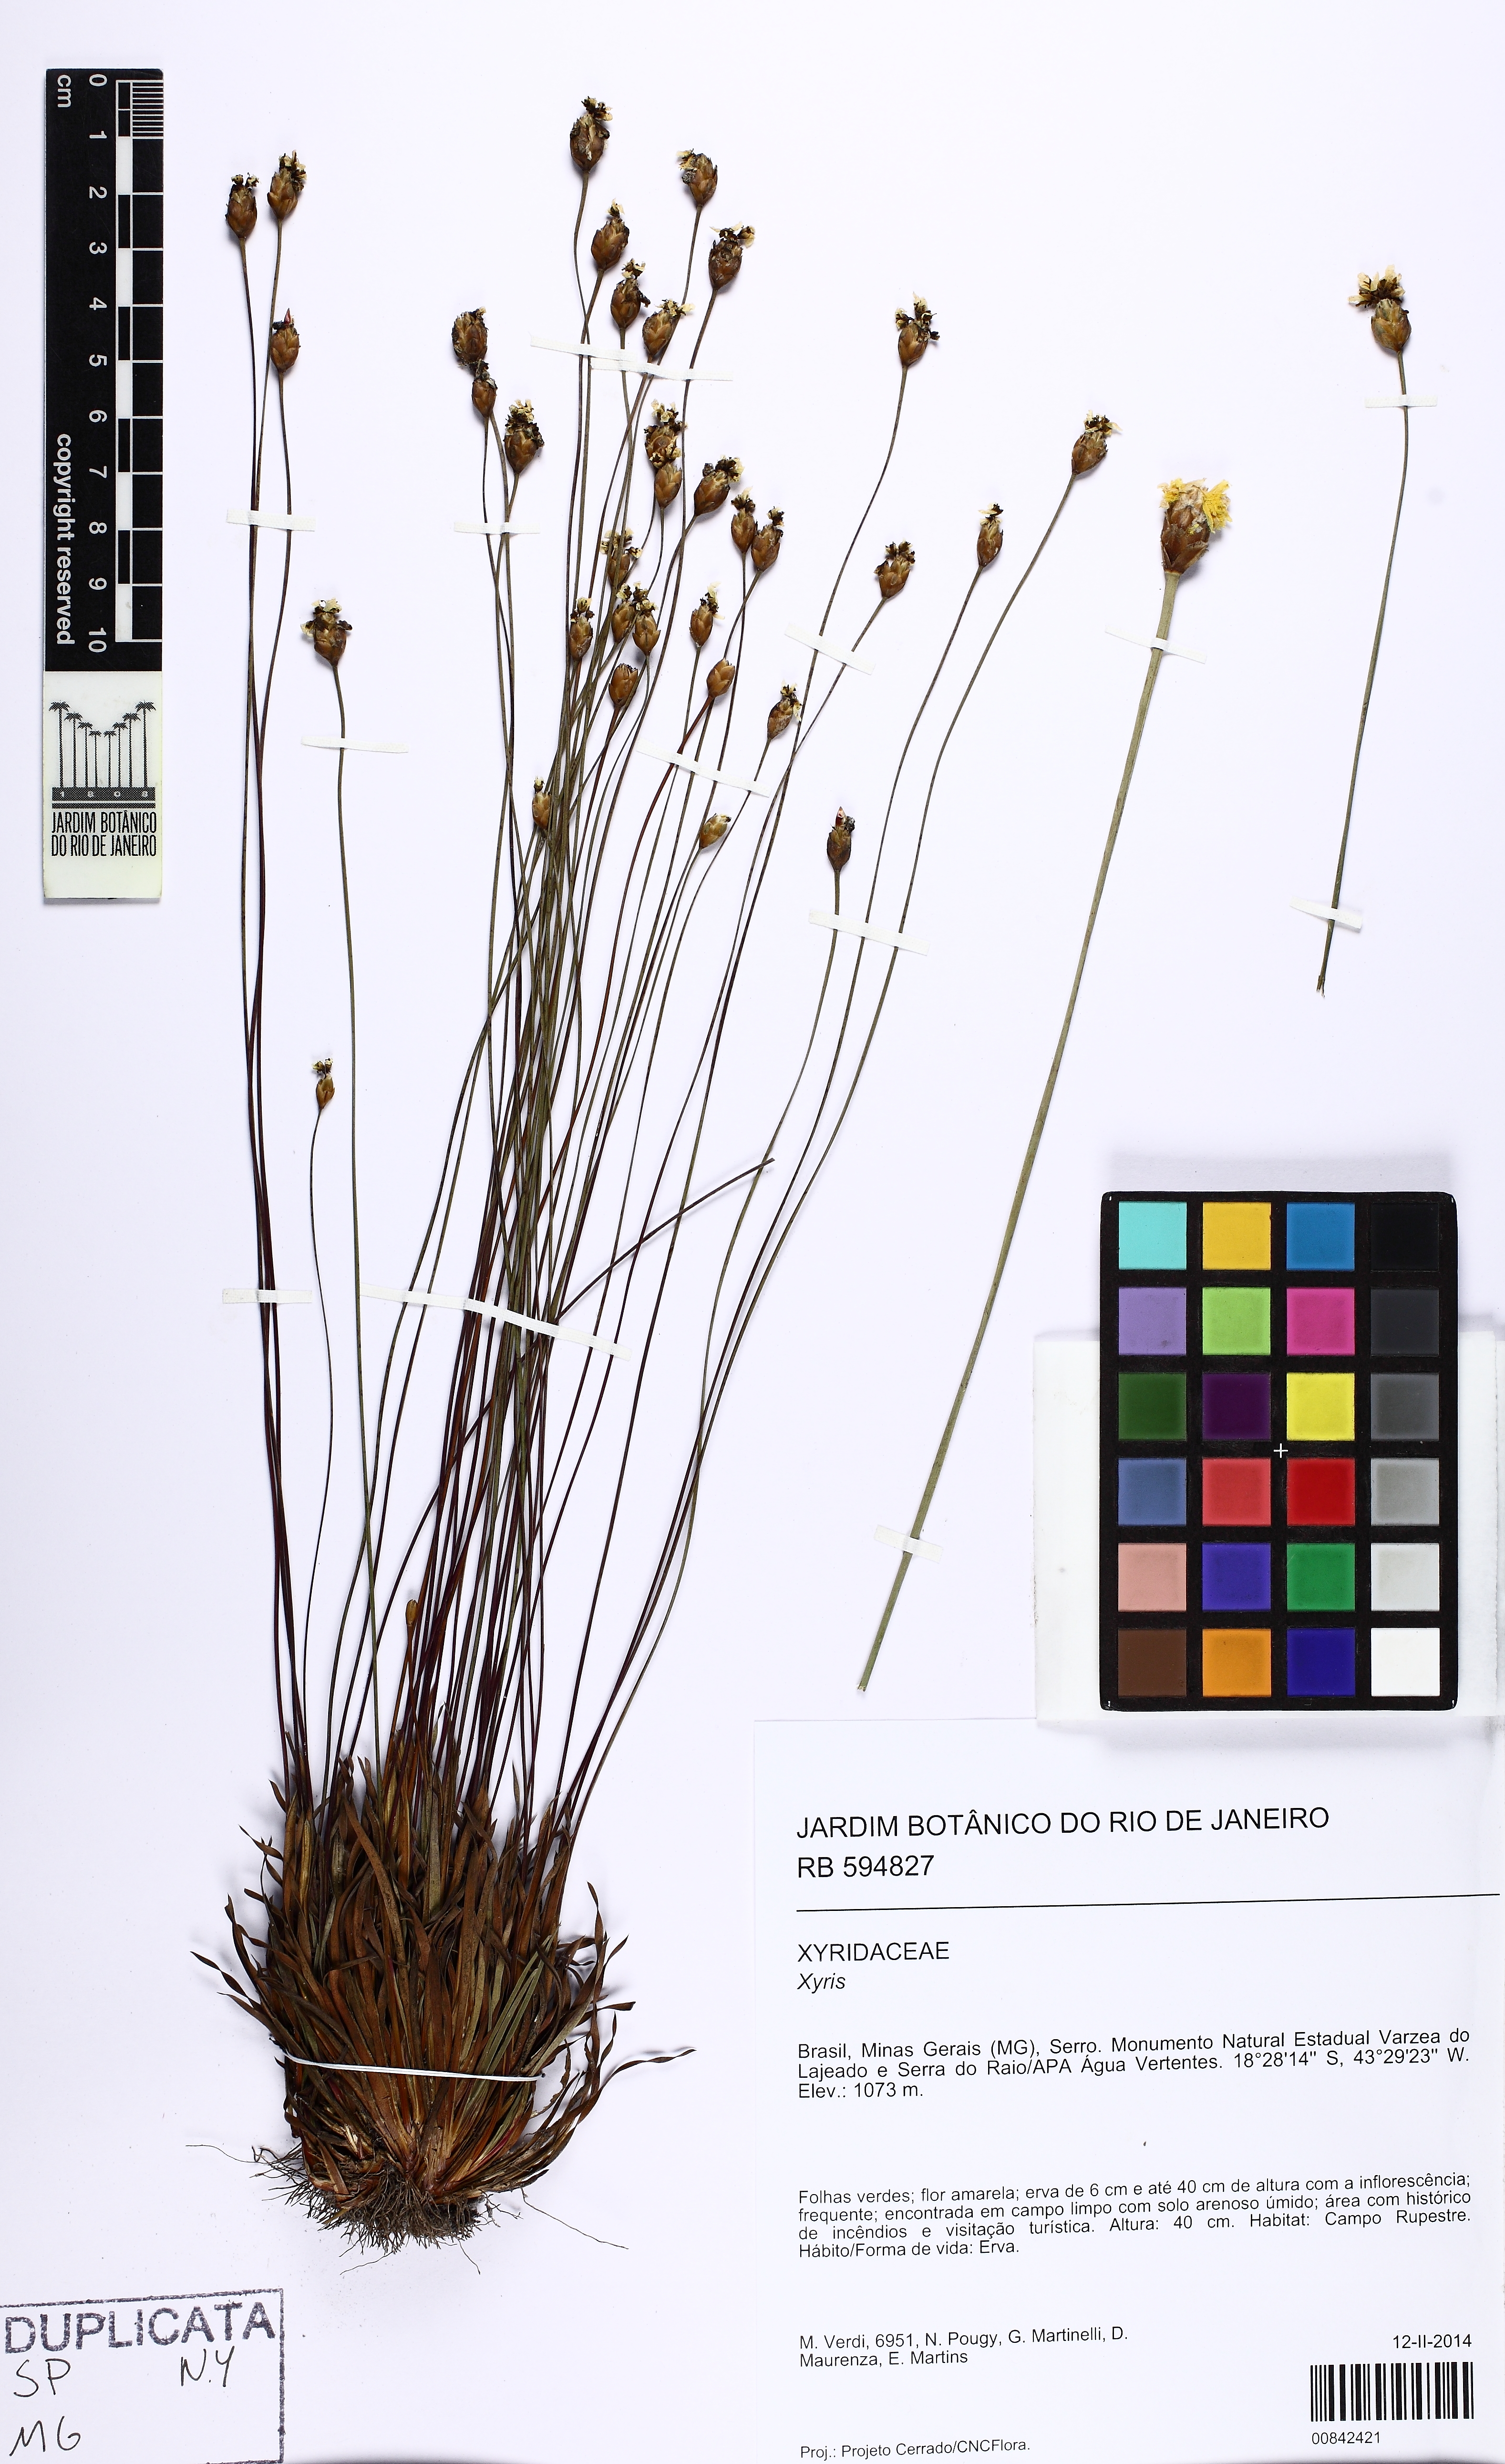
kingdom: Plantae
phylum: Tracheophyta
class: Liliopsida
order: Poales
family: Xyridaceae
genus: Xyris
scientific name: Xyris subsetigera
